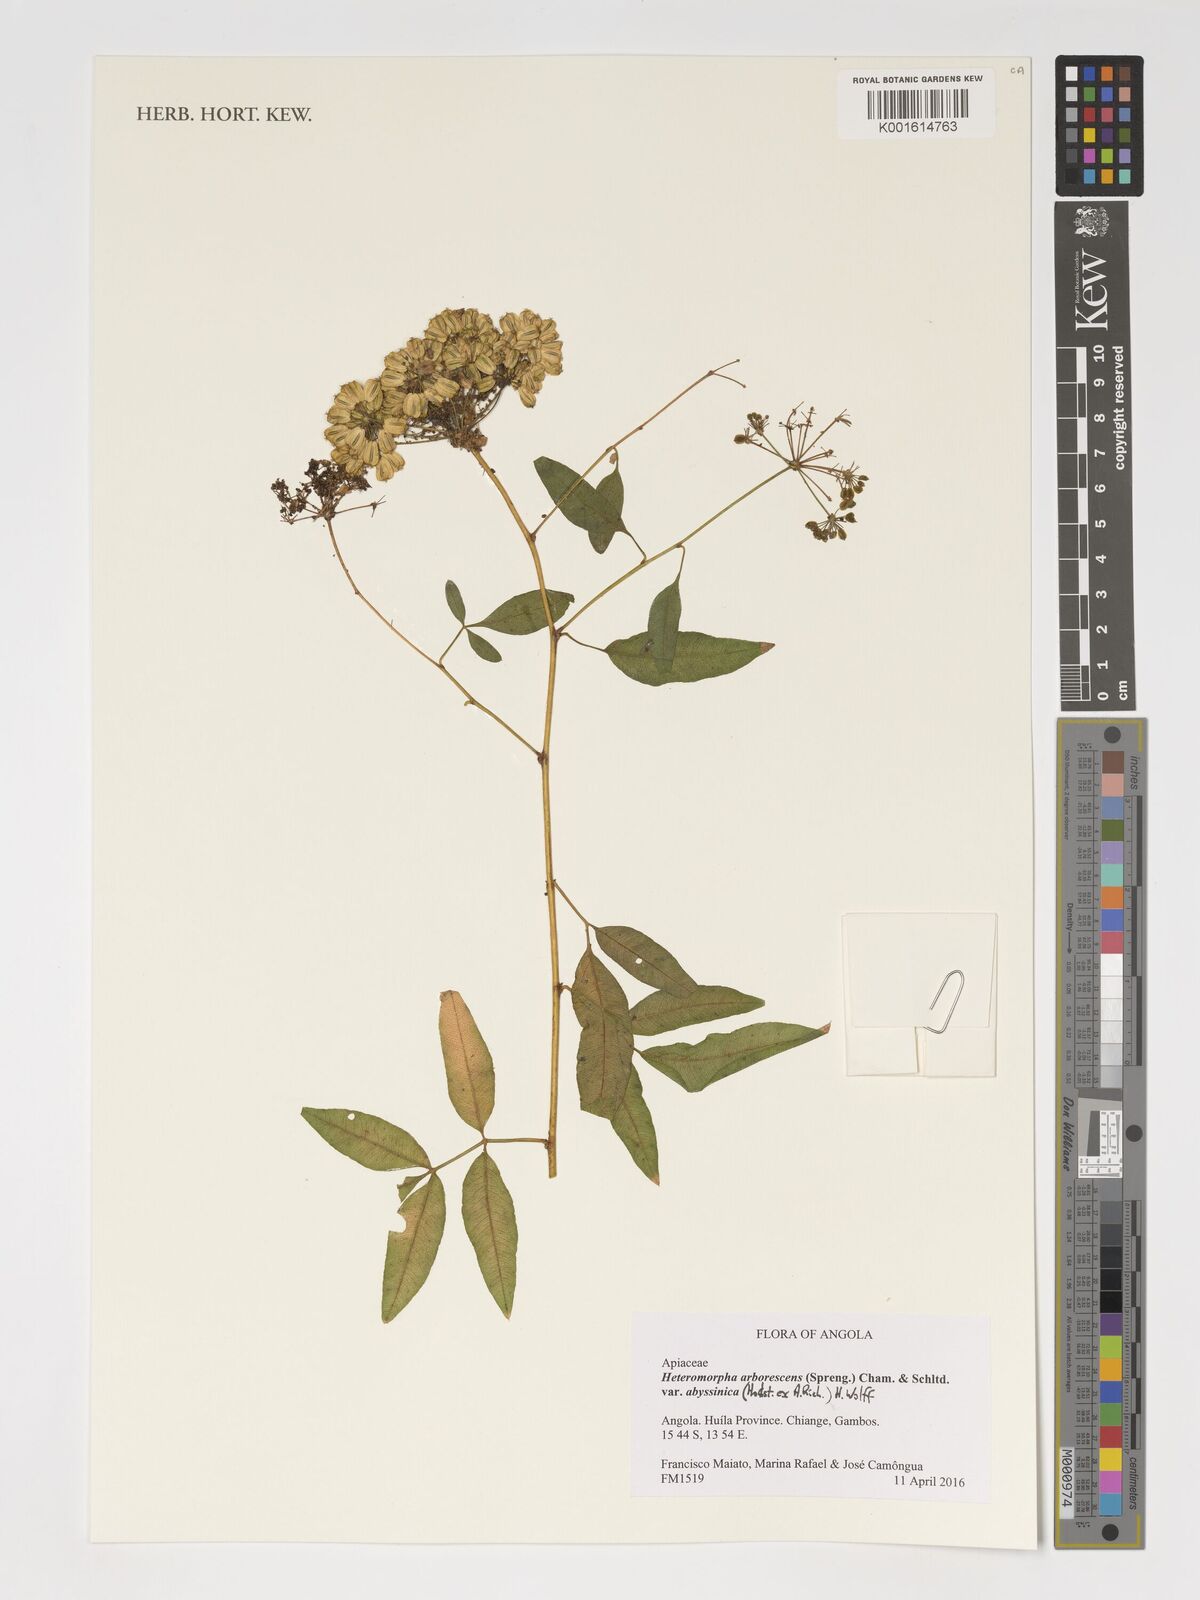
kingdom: Plantae
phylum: Tracheophyta
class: Magnoliopsida
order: Apiales
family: Apiaceae
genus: Heteromorpha
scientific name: Heteromorpha arborescens
